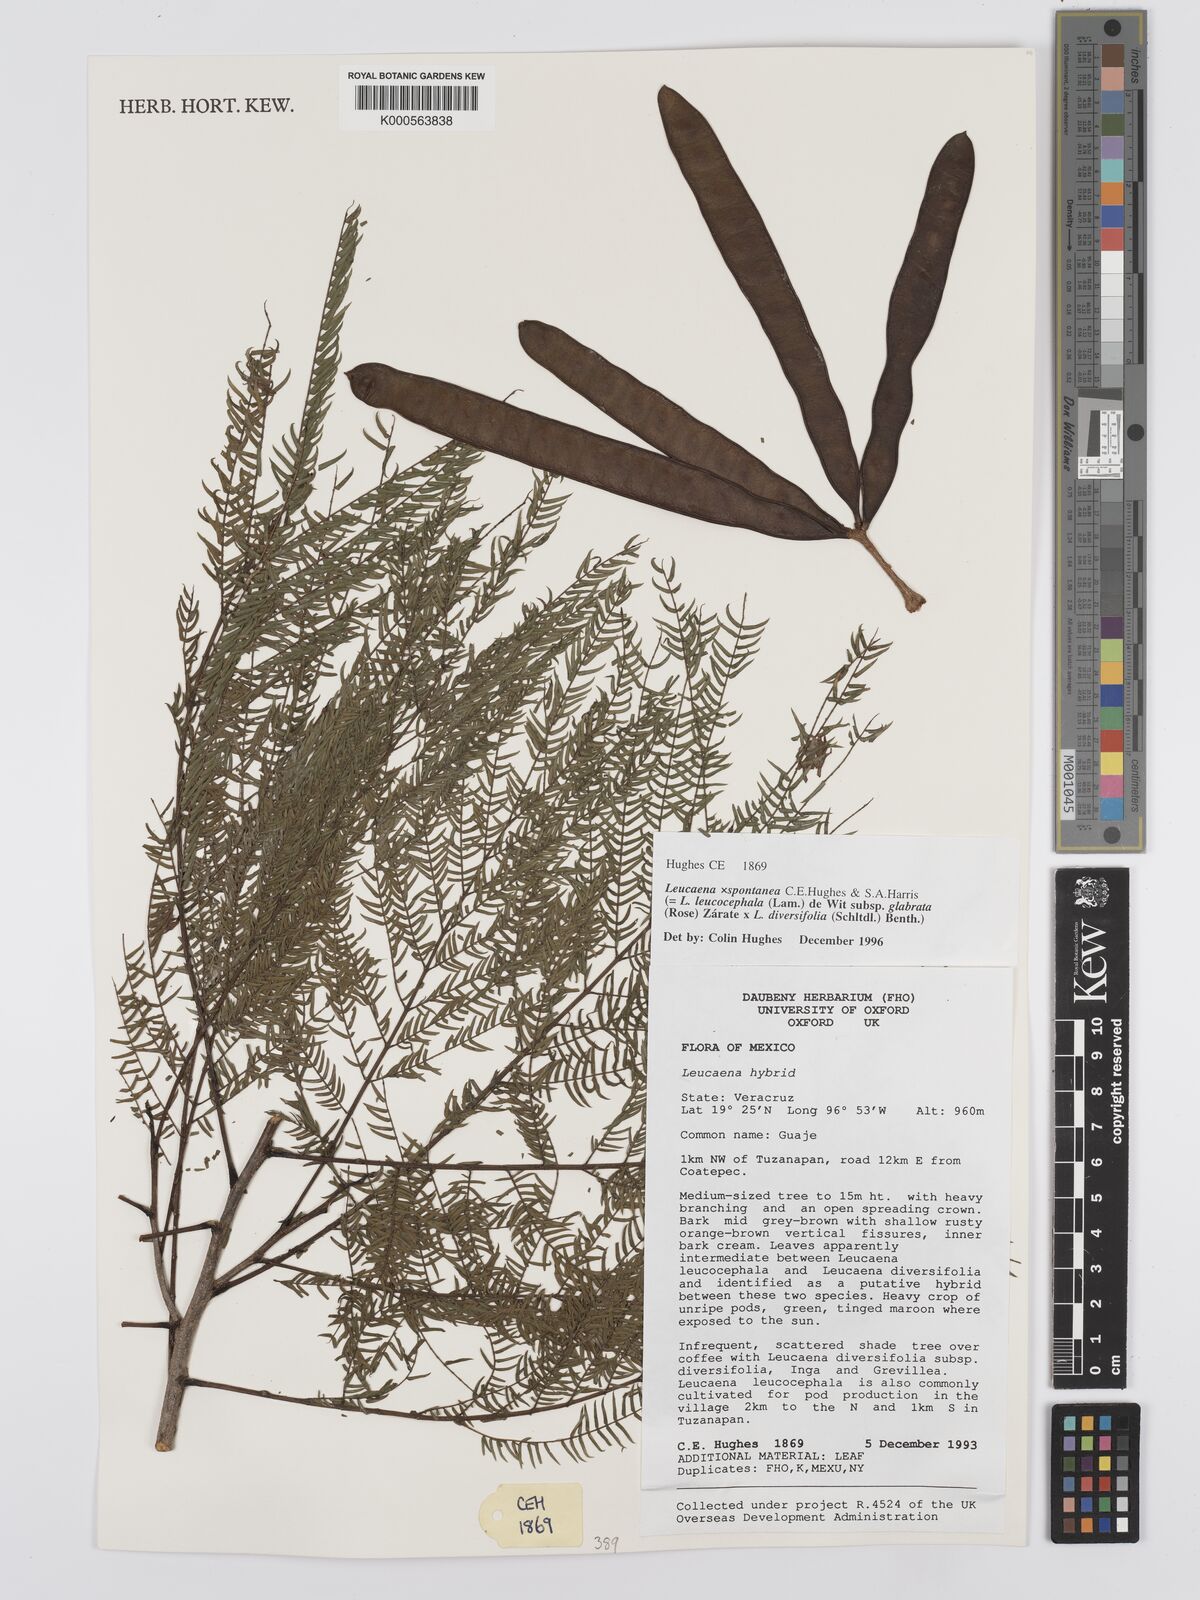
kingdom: Plantae
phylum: Tracheophyta
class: Magnoliopsida
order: Fabales
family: Fabaceae
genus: Leucaena
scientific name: Leucaena
